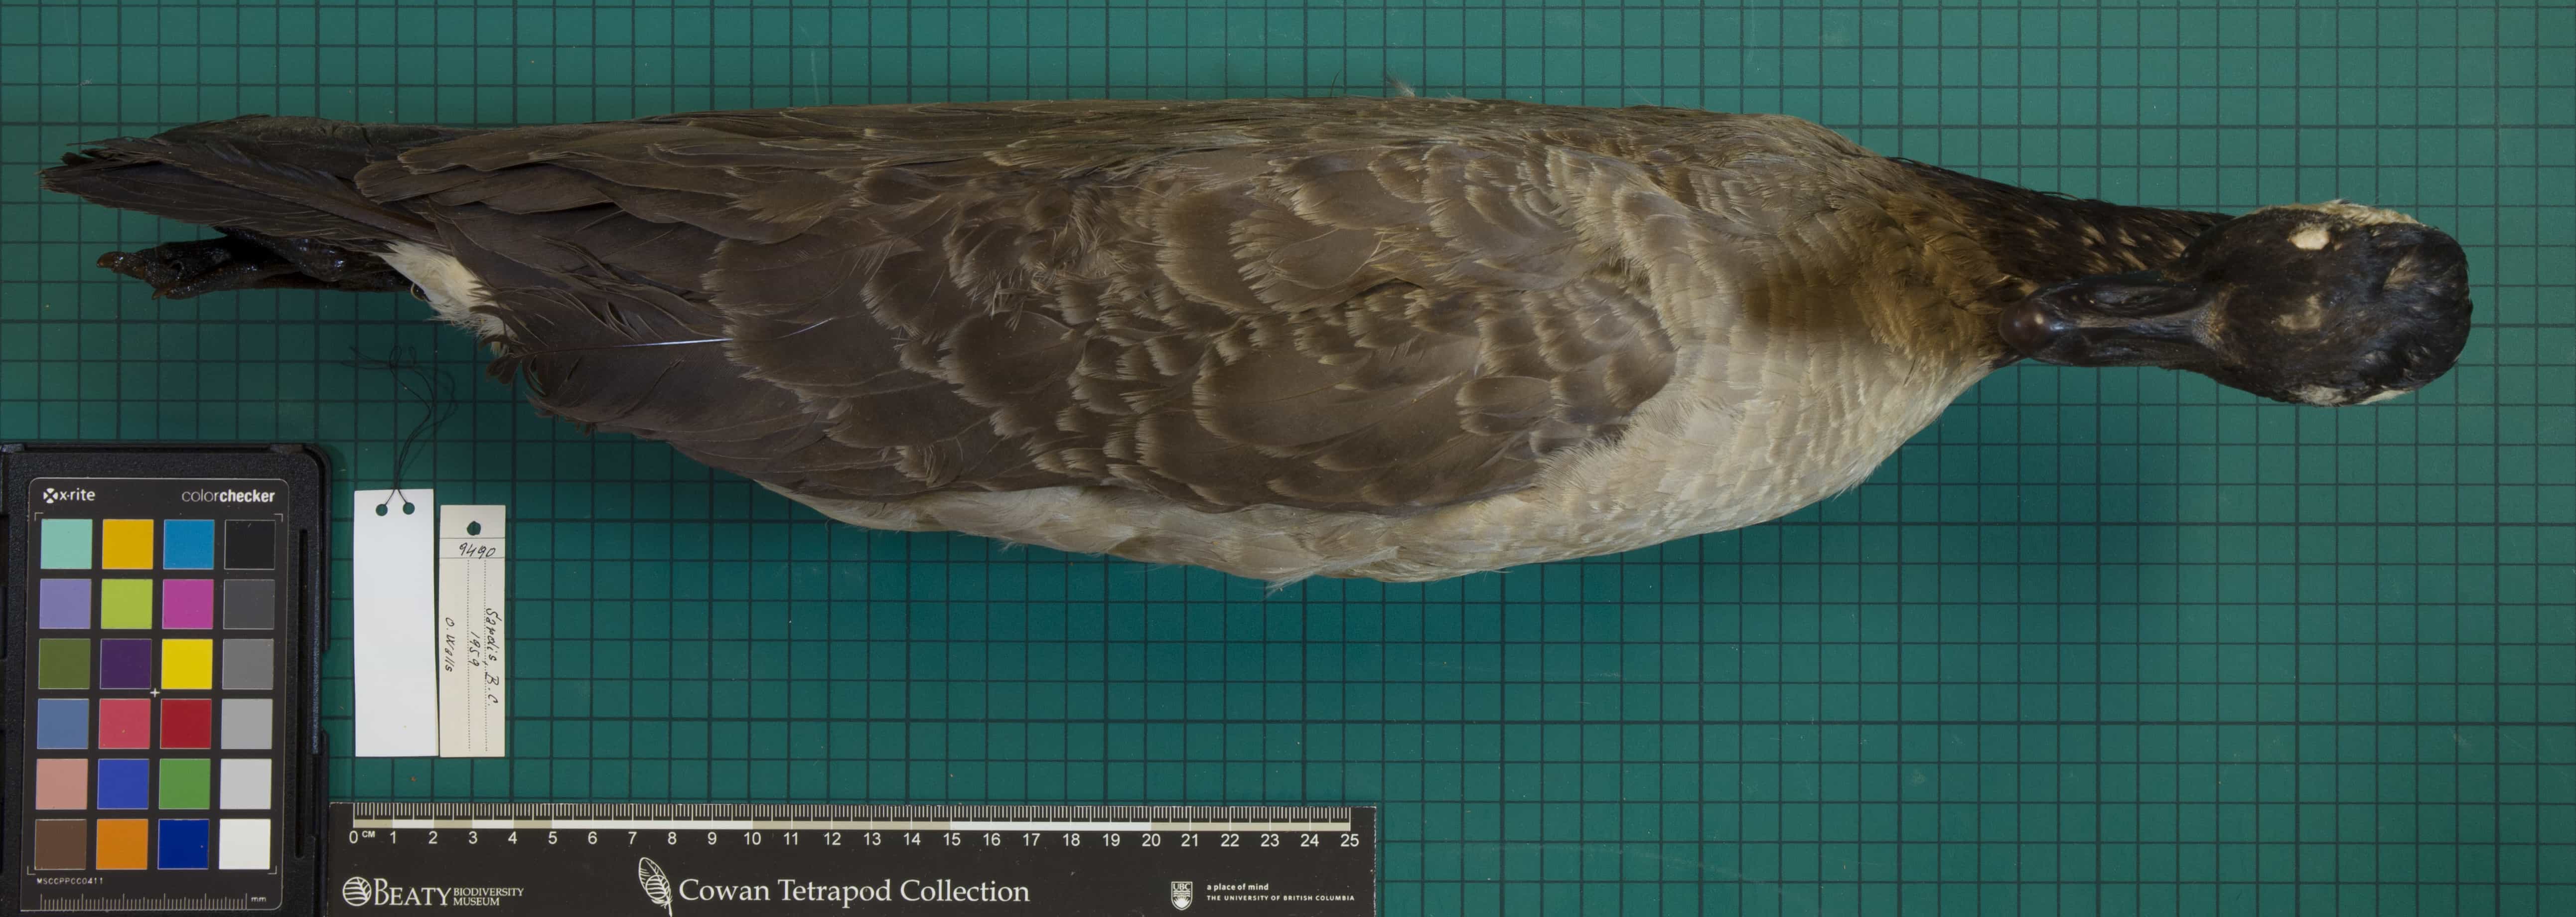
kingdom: Animalia
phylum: Chordata
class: Aves
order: Anseriformes
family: Anatidae
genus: Branta
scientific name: Branta canadensis
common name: Canada Goose
